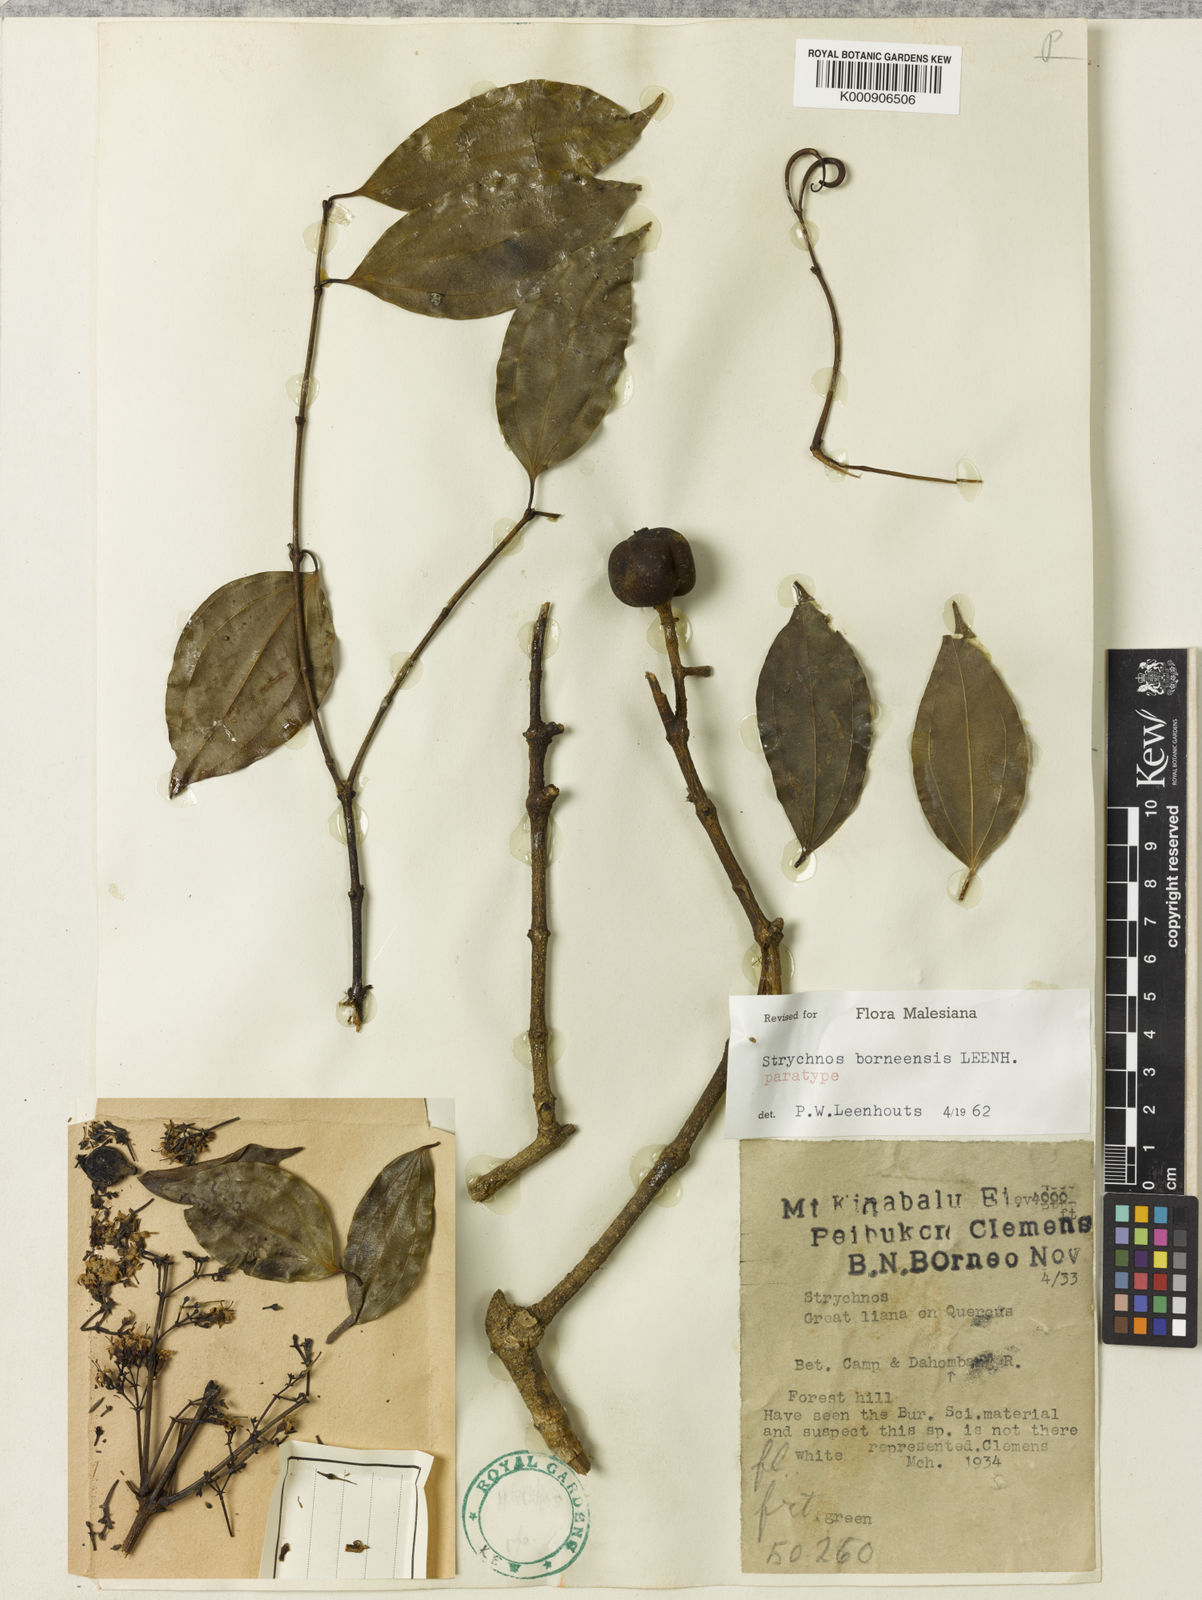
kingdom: Plantae
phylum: Tracheophyta
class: Magnoliopsida
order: Gentianales
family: Loganiaceae
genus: Strychnos
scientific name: Strychnos borneensis
